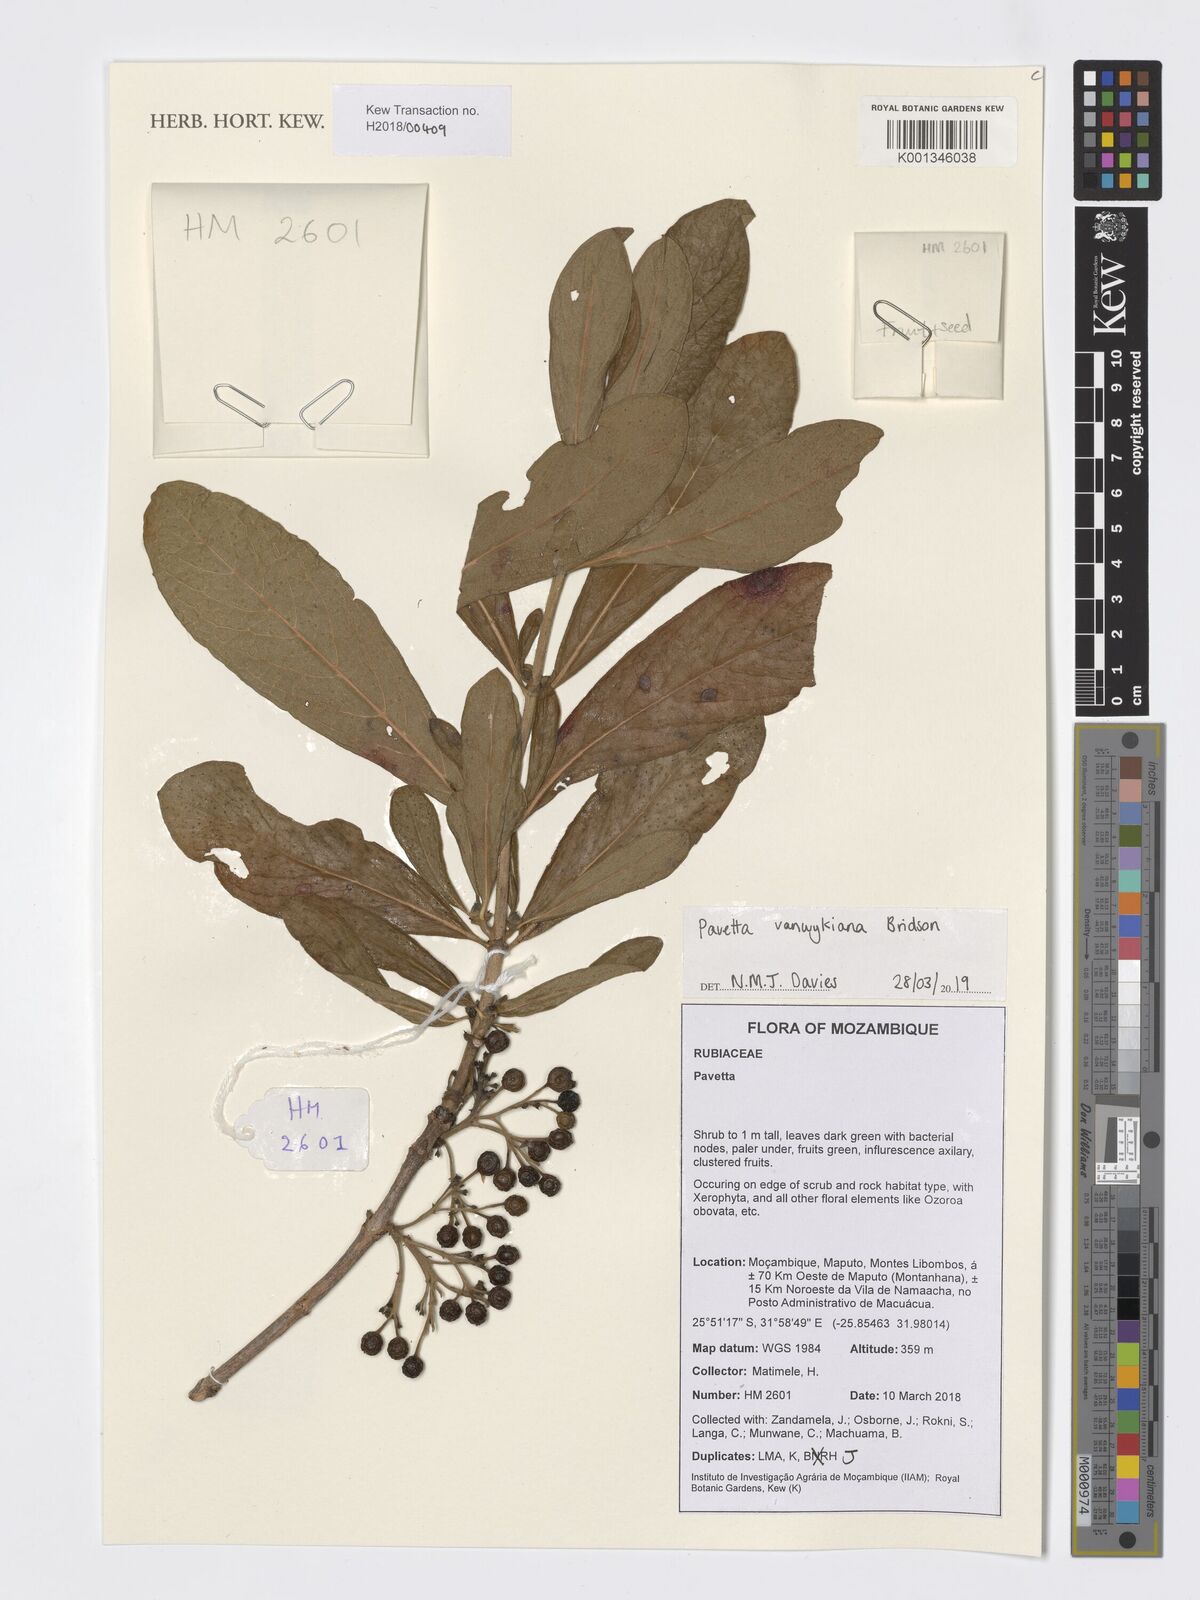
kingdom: Plantae
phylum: Tracheophyta
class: Magnoliopsida
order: Gentianales
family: Rubiaceae
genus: Pavetta
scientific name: Pavetta vanwykiana
